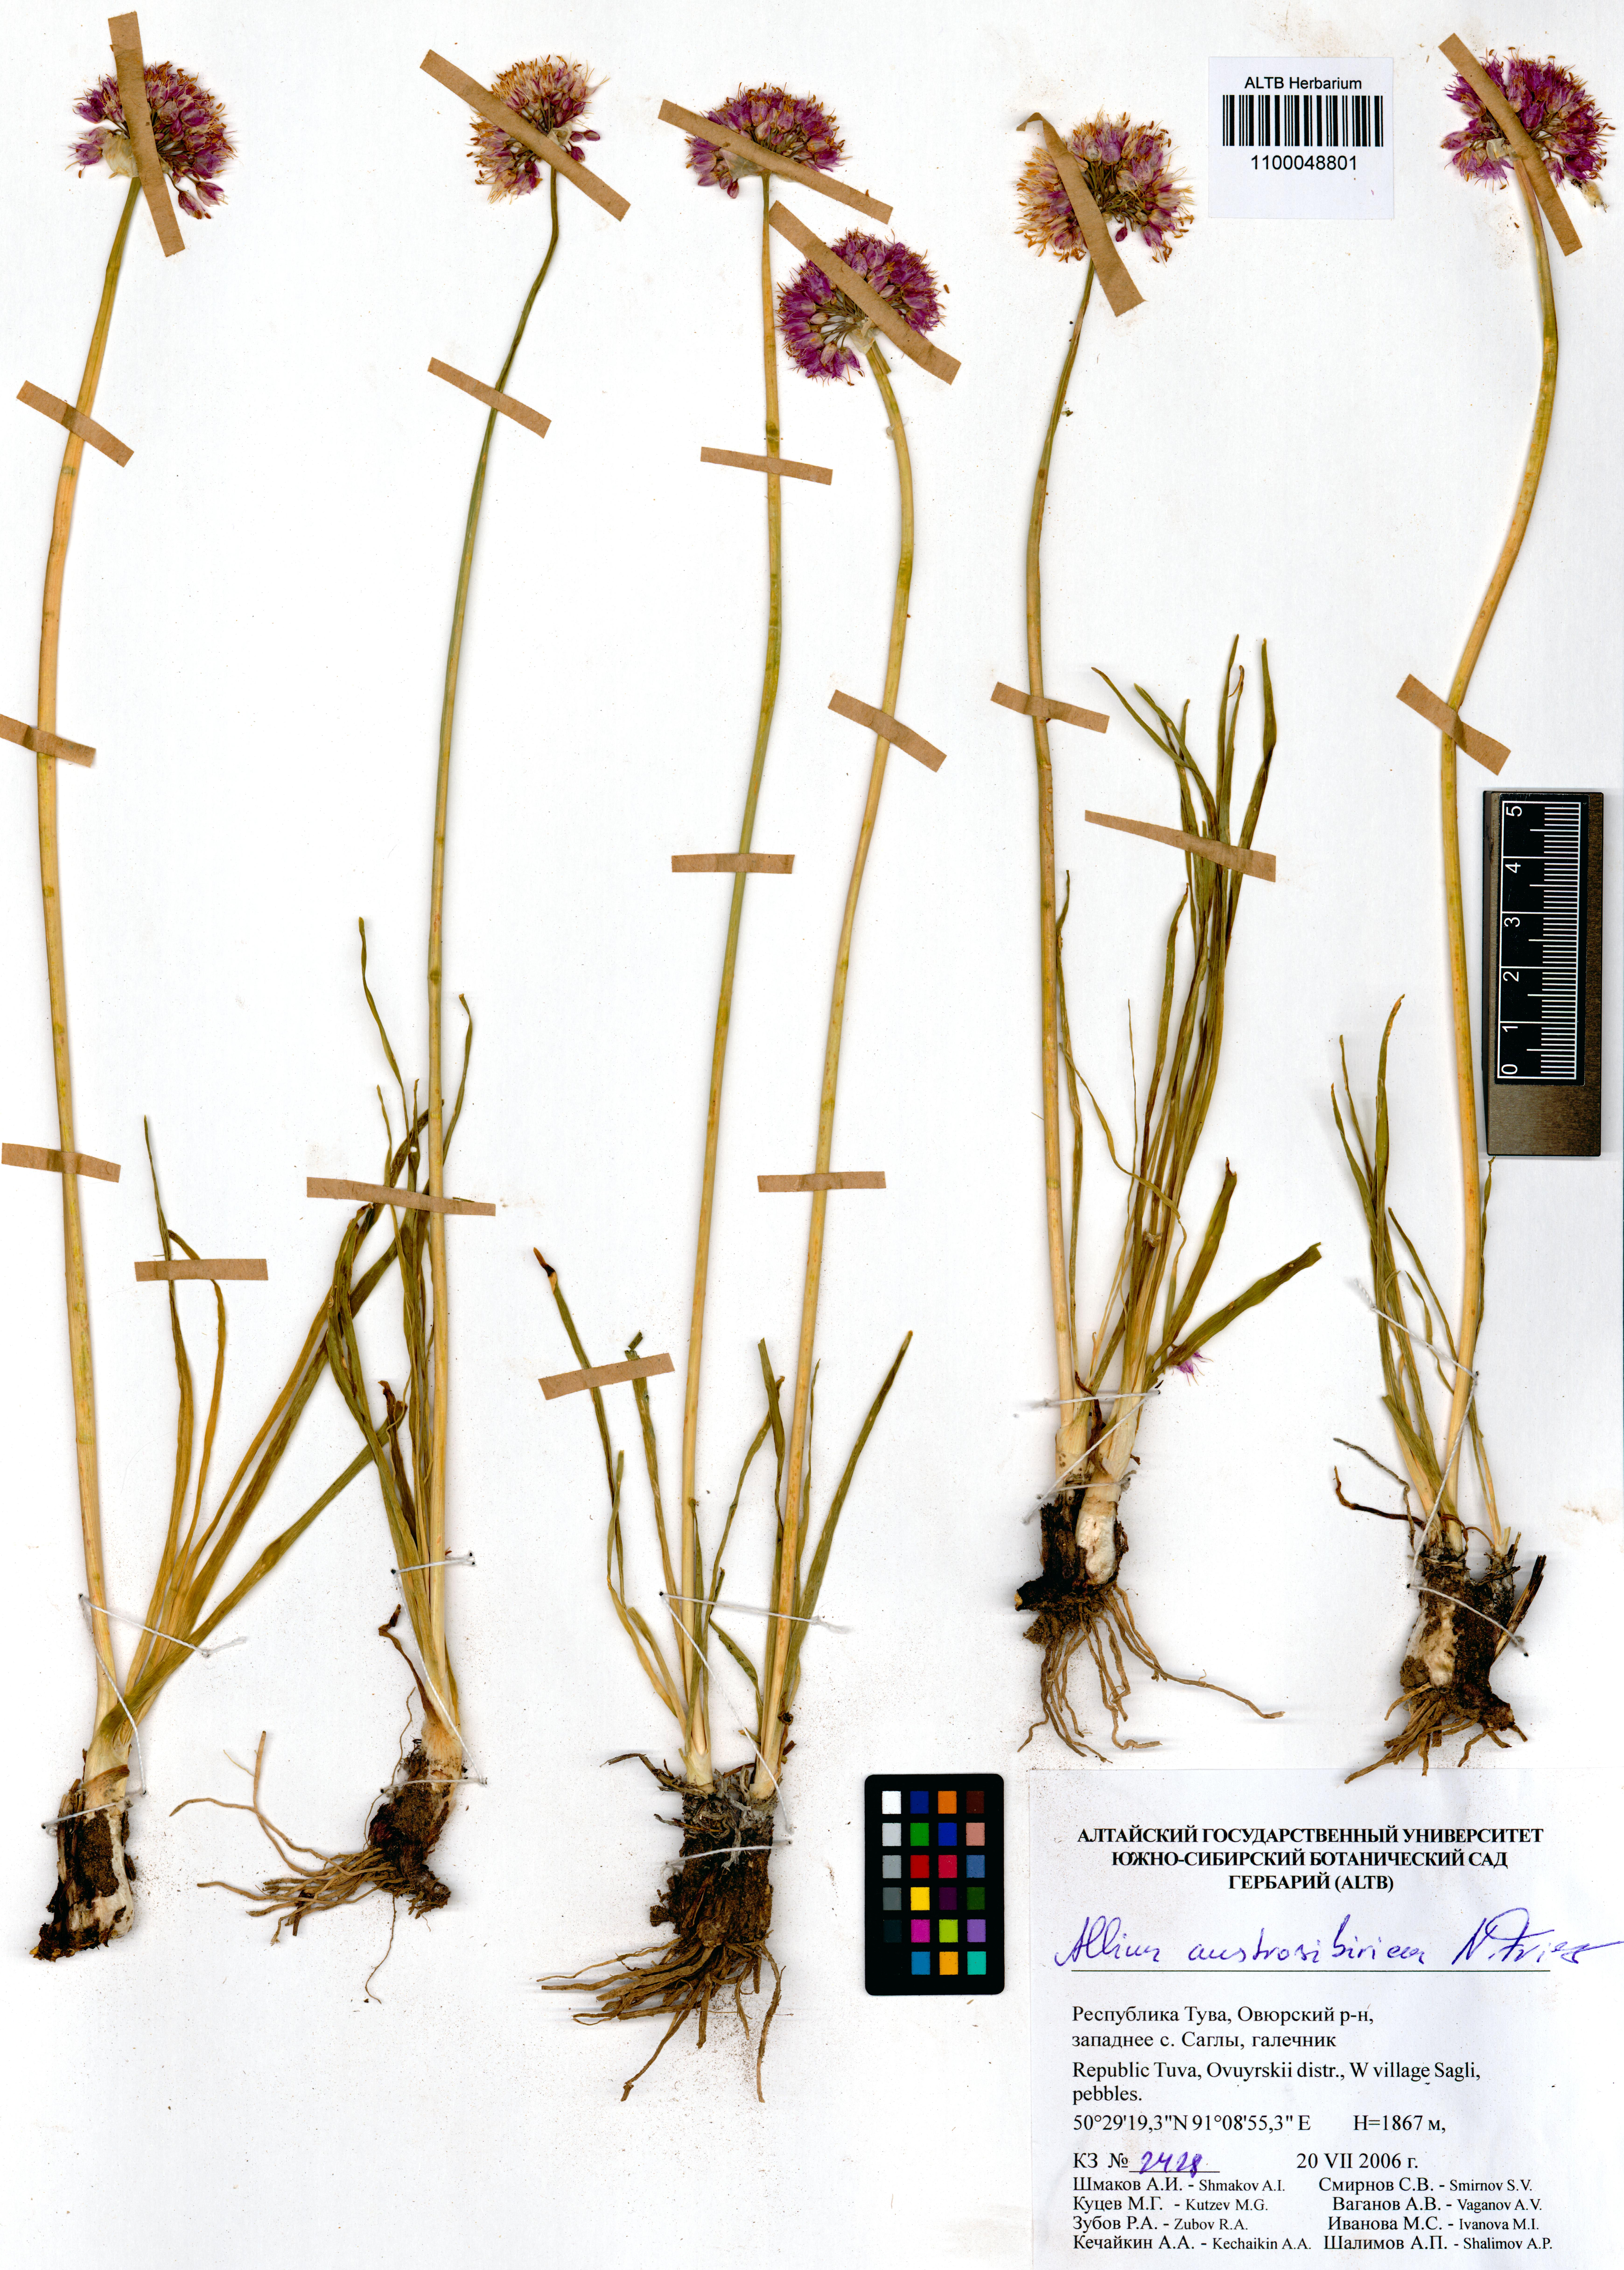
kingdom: Plantae
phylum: Tracheophyta
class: Liliopsida
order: Asparagales
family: Amaryllidaceae
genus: Allium
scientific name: Allium austrosibiricum
